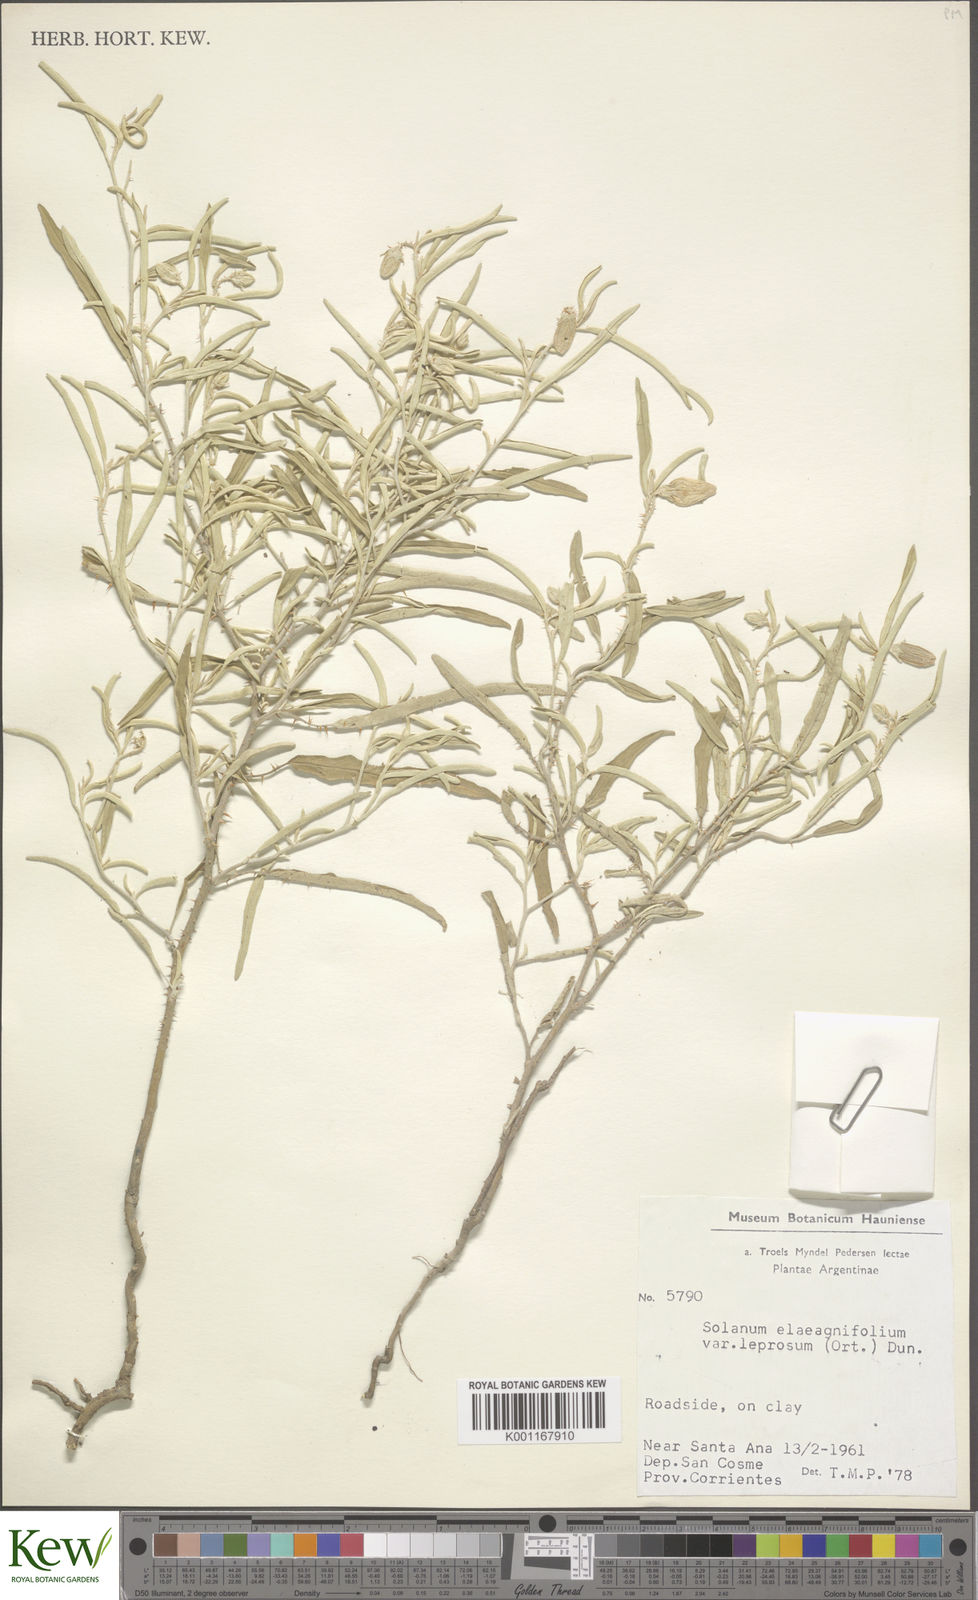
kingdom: Plantae
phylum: Tracheophyta
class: Magnoliopsida
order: Solanales
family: Solanaceae
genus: Solanum
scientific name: Solanum elaeagnifolium
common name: Silverleaf nightshade
